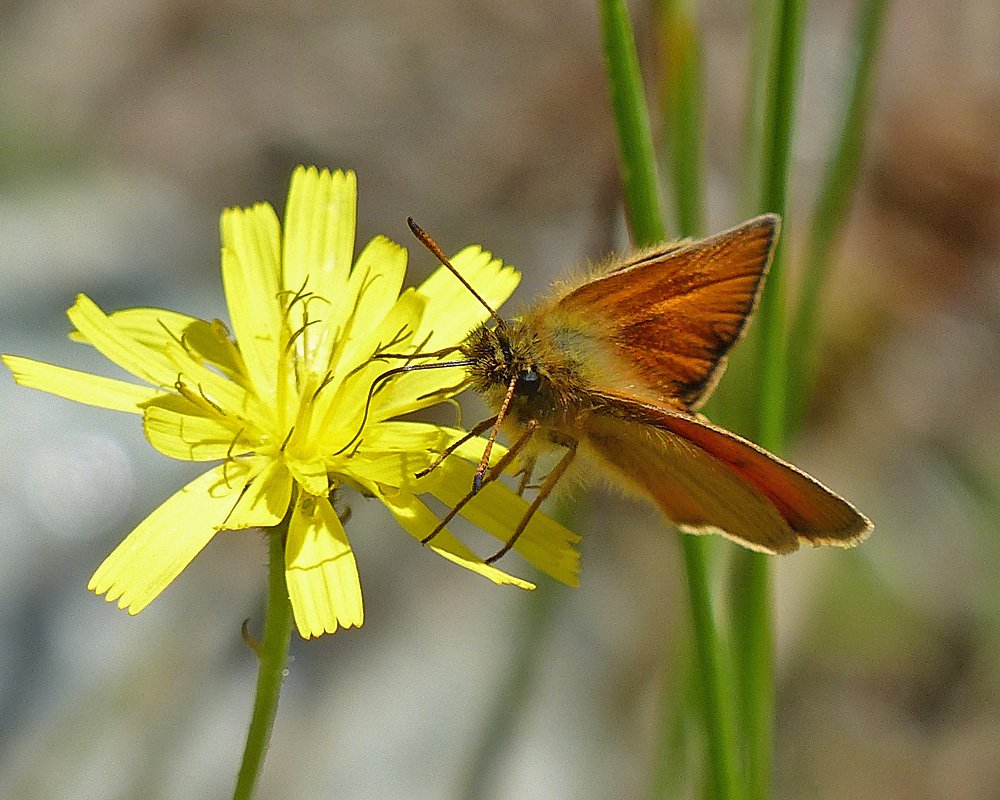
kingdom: Animalia
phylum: Arthropoda
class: Insecta
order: Lepidoptera
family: Hesperiidae
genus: Thymelicus
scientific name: Thymelicus lineola
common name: European Skipper
